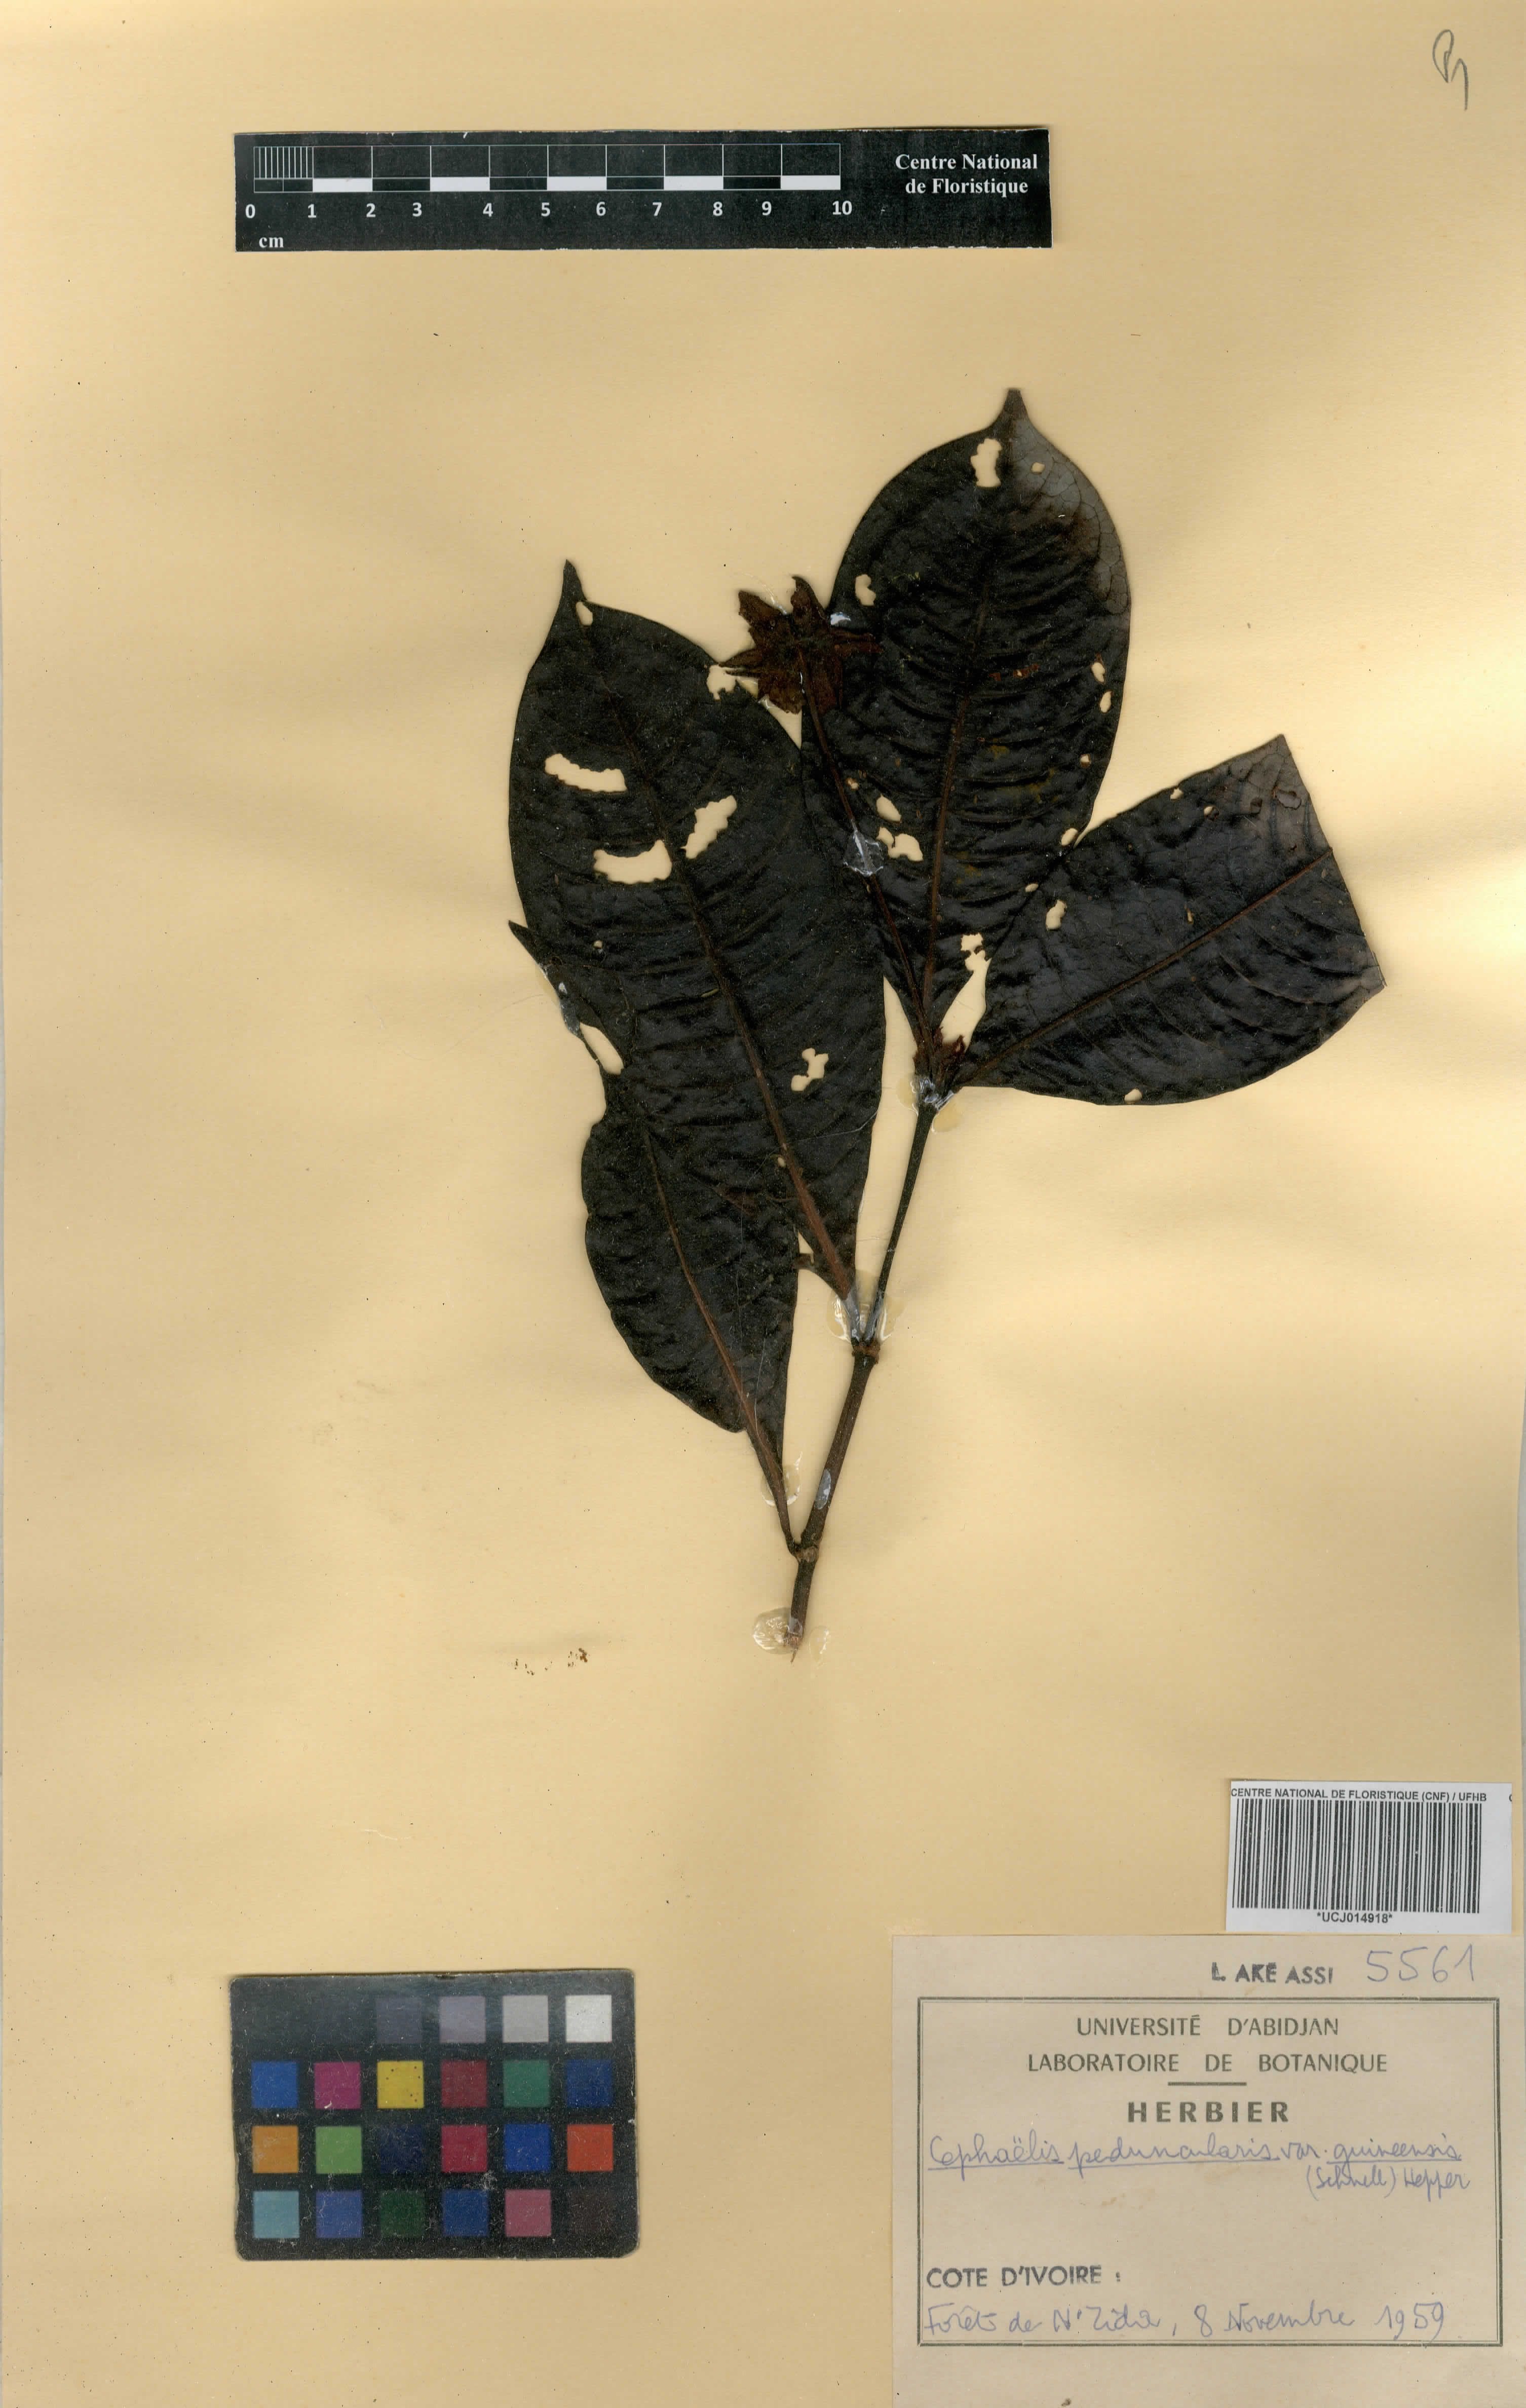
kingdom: Plantae
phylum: Tracheophyta
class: Magnoliopsida
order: Gentianales
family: Rubiaceae
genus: Psychotria
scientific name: Psychotria peduncularis
